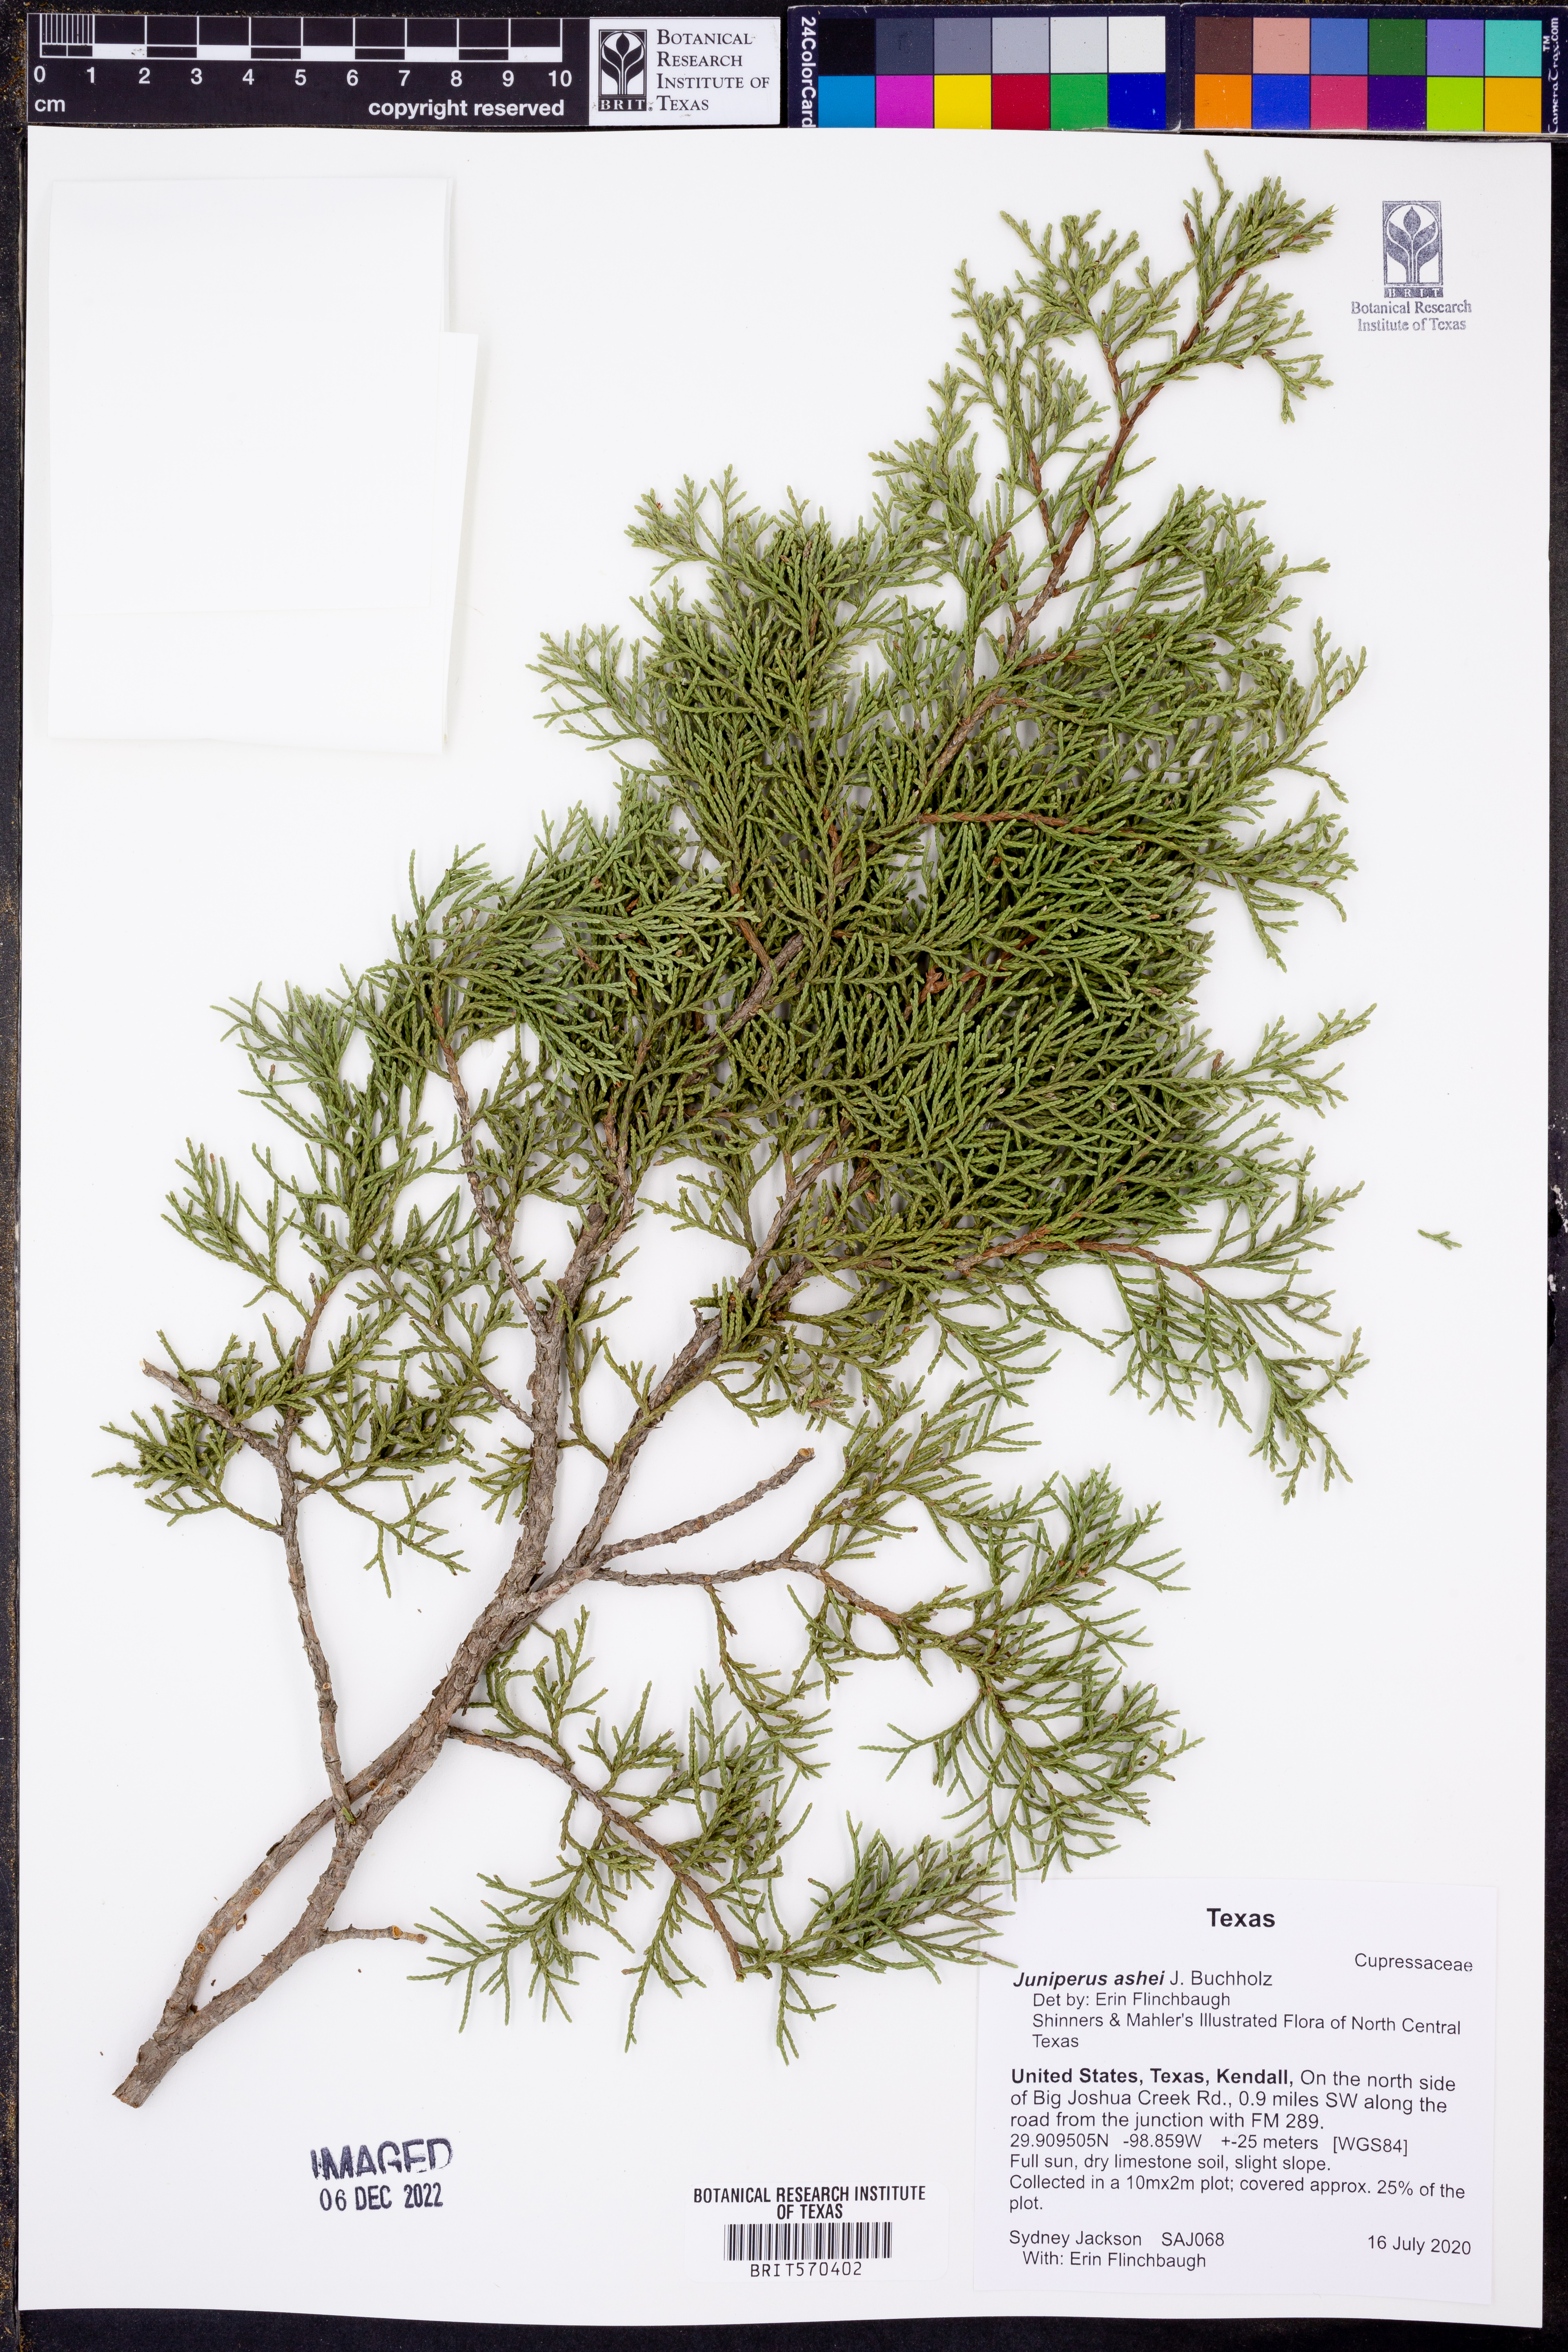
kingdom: Plantae
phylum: Tracheophyta
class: Pinopsida
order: Pinales
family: Cupressaceae
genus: Juniperus
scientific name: Juniperus ashei
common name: Mexican juniper
